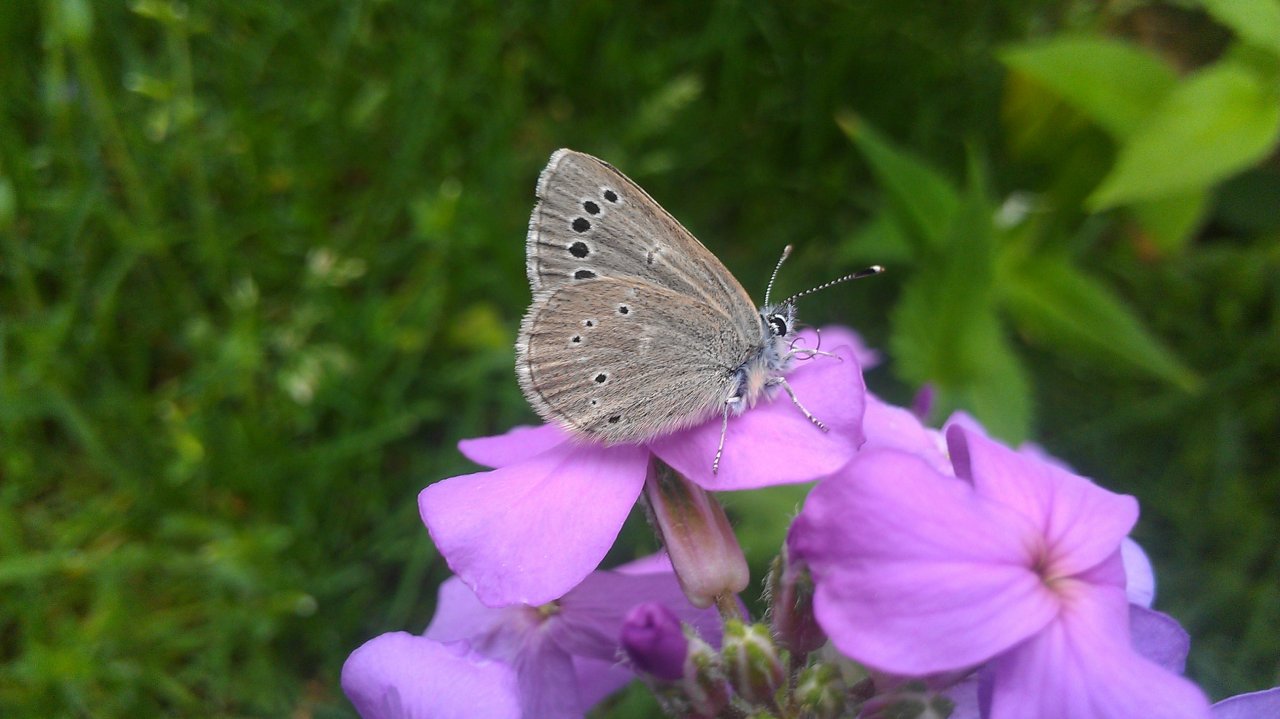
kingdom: Animalia
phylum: Arthropoda
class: Insecta
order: Lepidoptera
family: Lycaenidae
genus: Glaucopsyche
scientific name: Glaucopsyche lygdamus
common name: Silvery Blue
